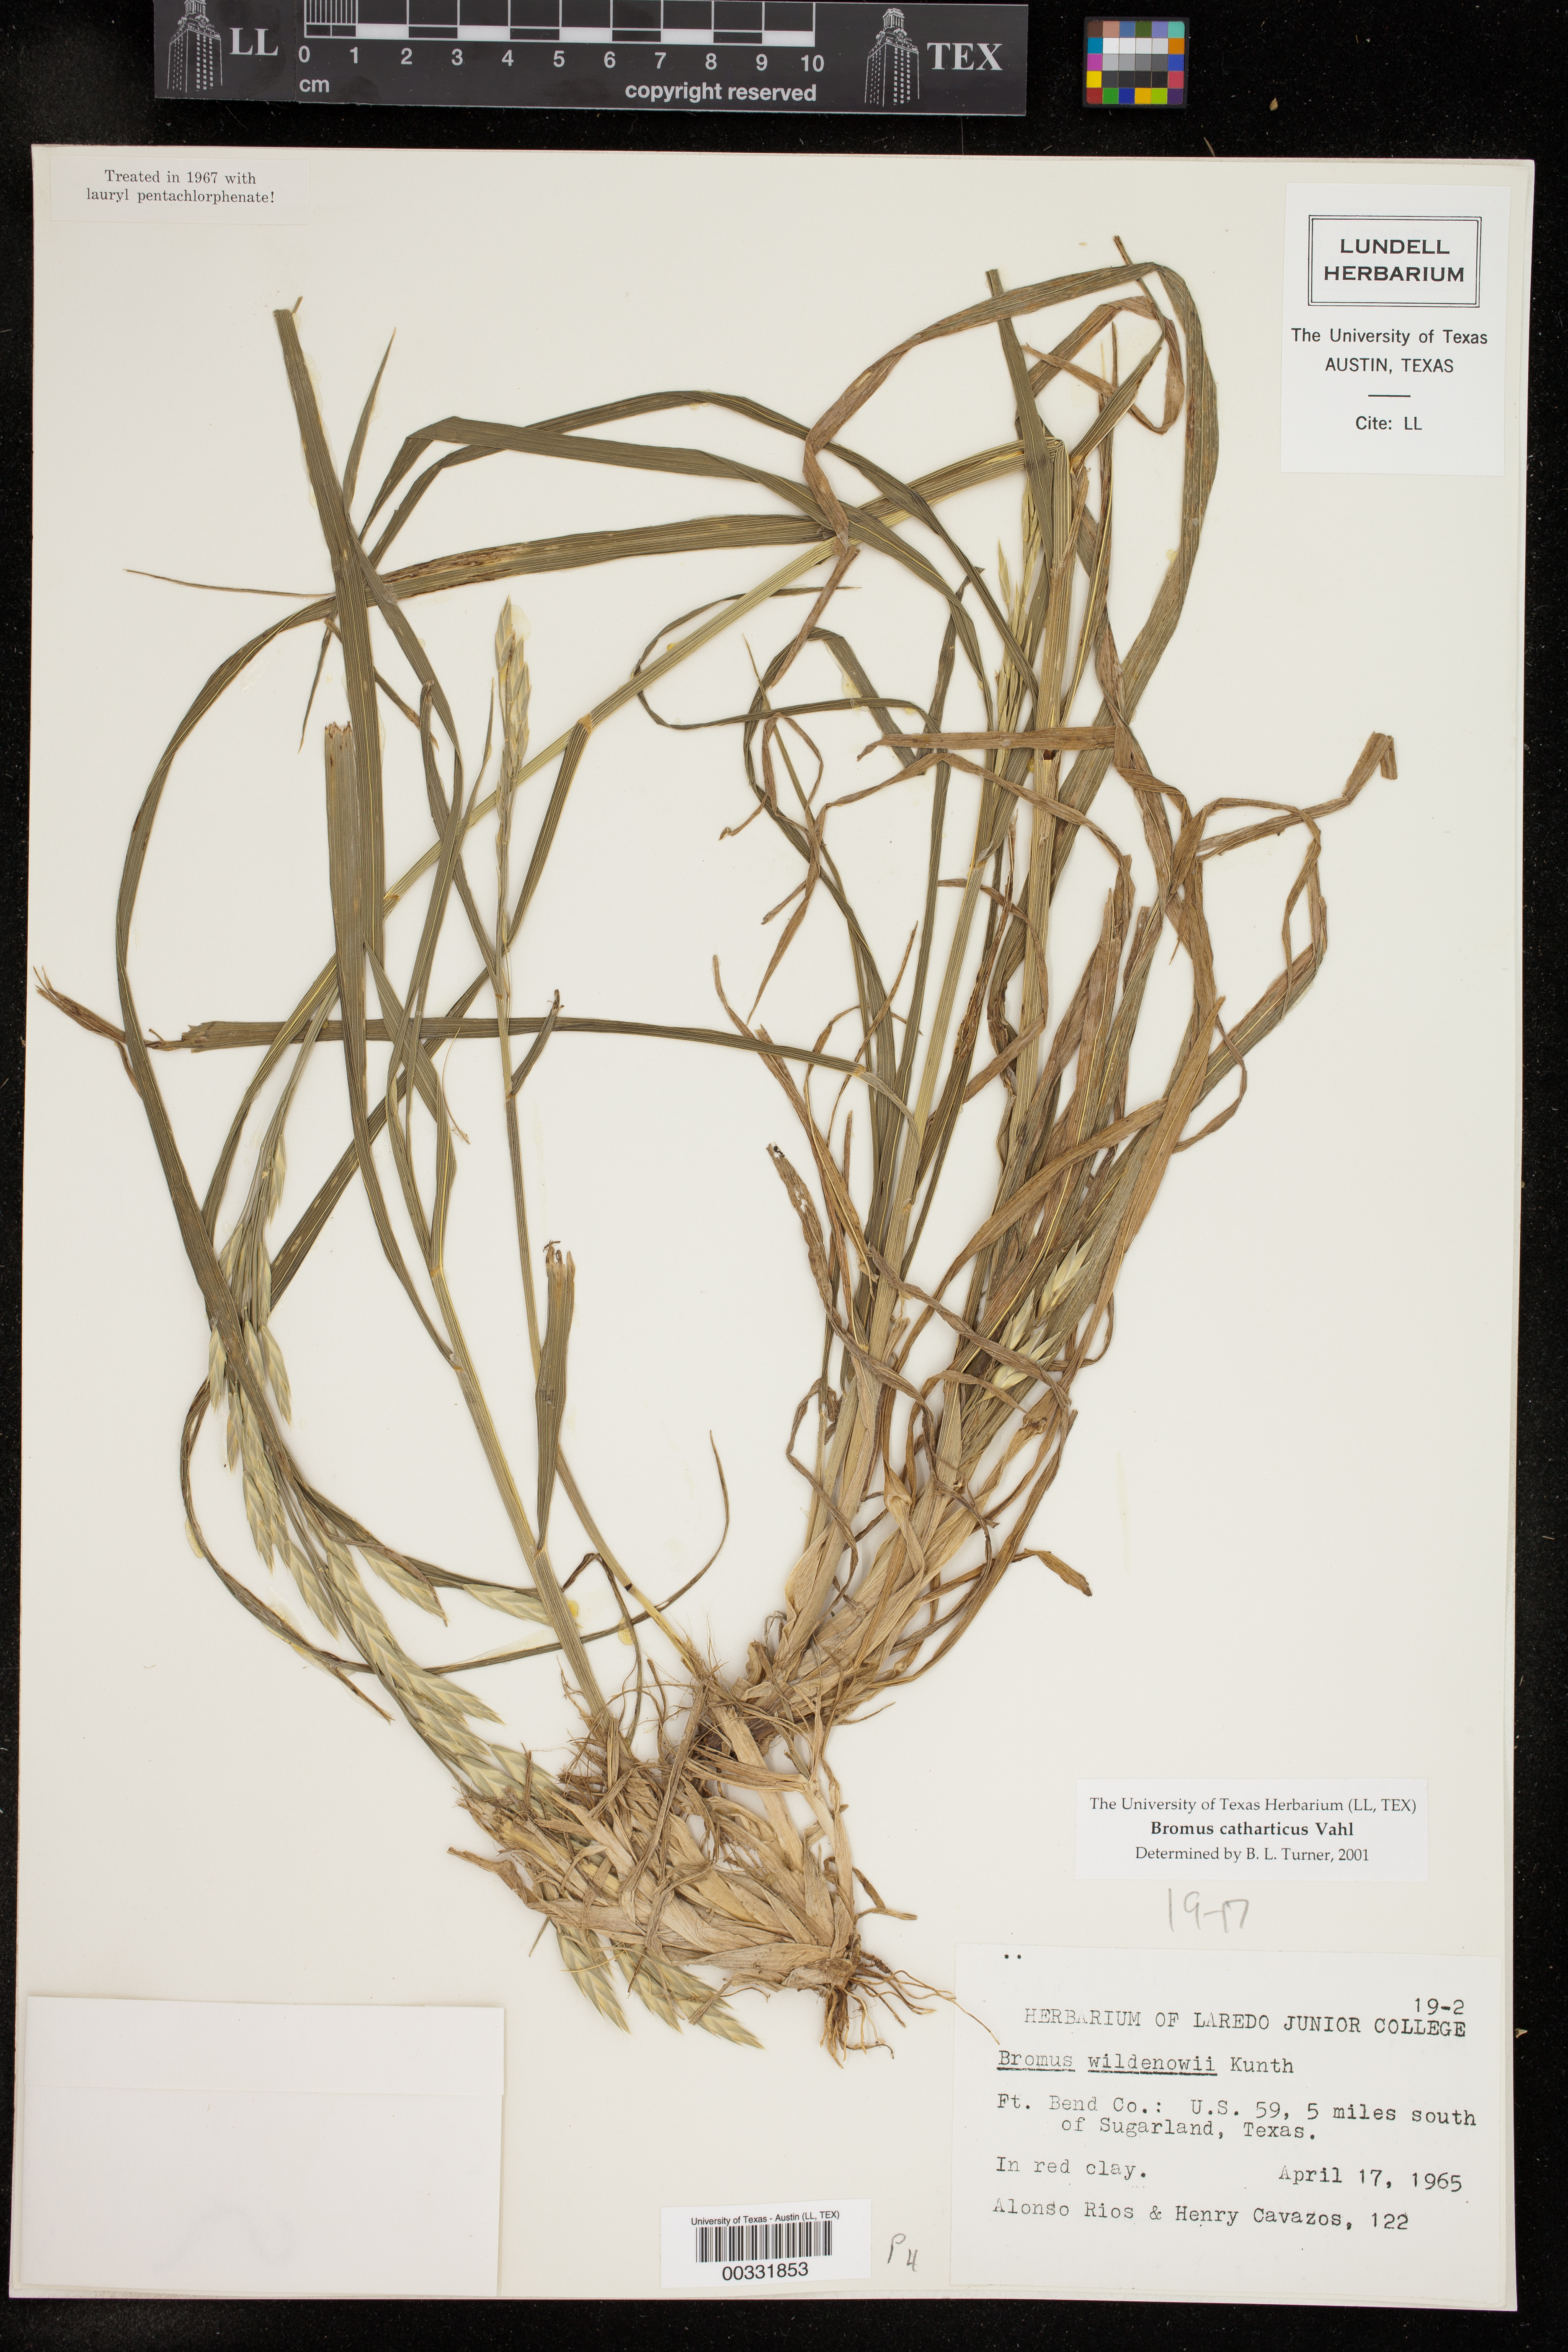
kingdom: Plantae
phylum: Tracheophyta
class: Liliopsida
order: Poales
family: Poaceae
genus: Bromus
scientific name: Bromus catharticus
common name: Rescuegrass
